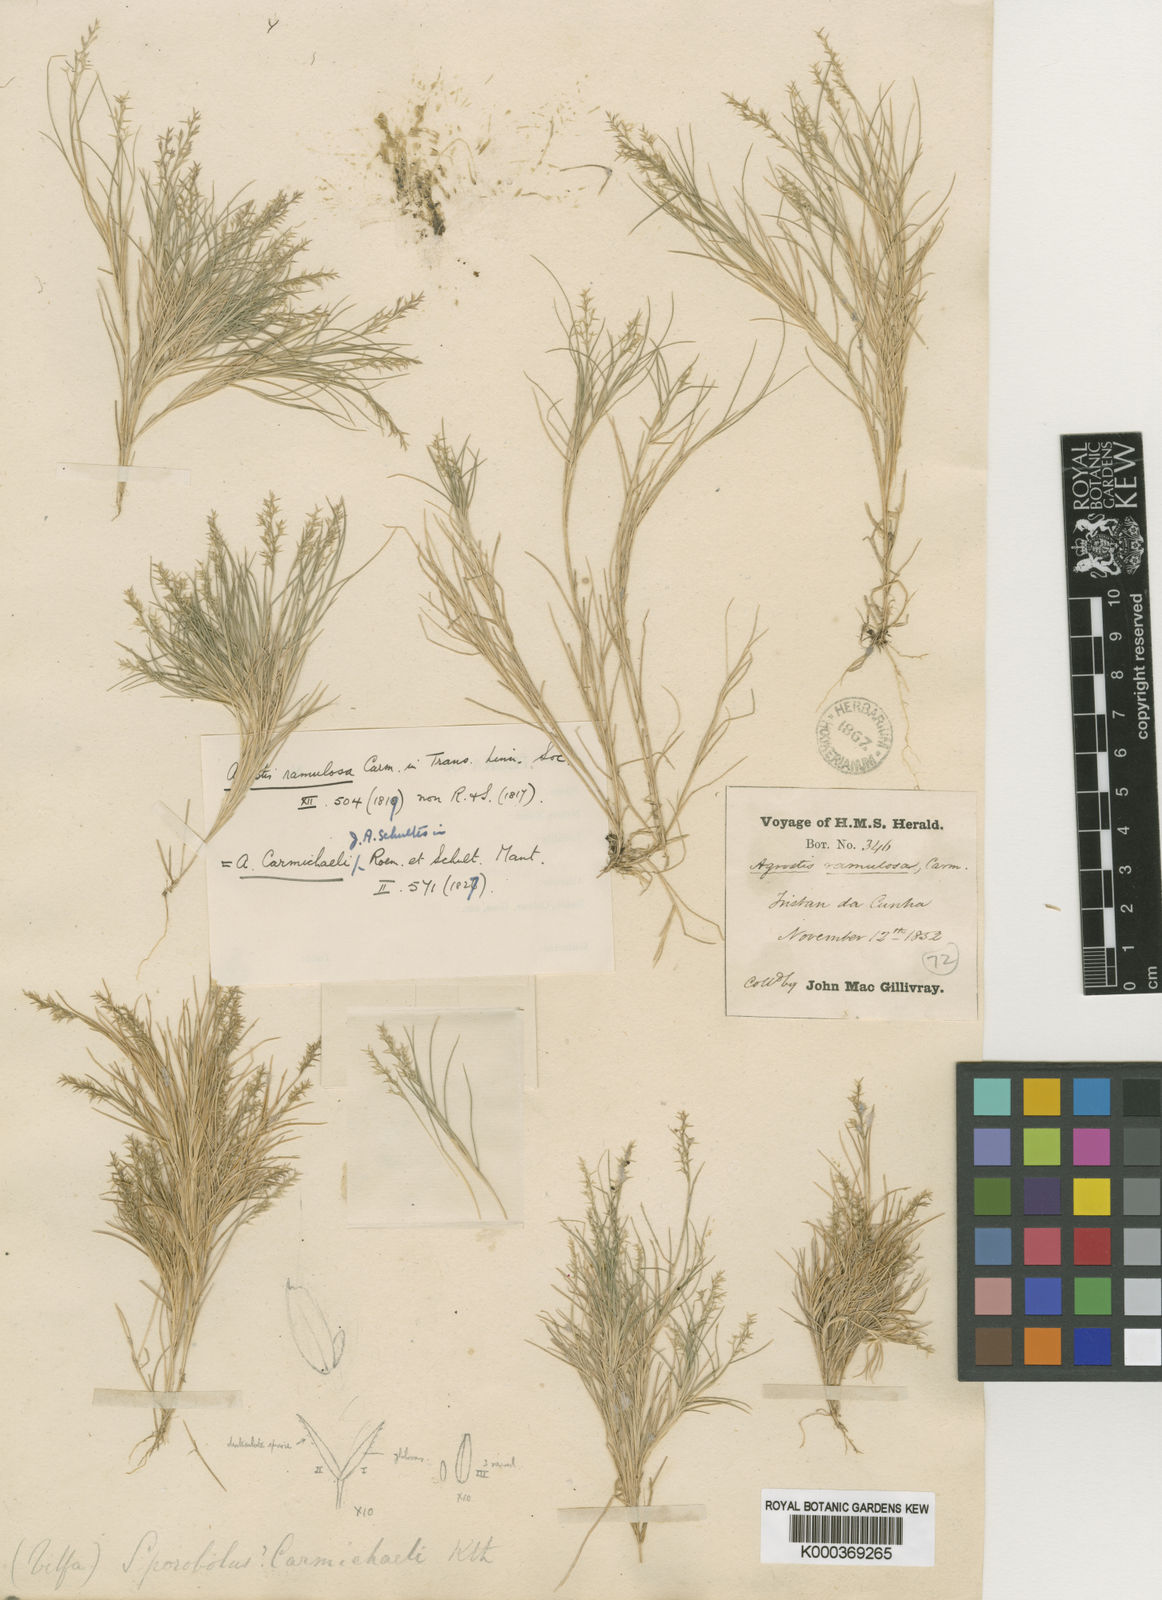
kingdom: Plantae
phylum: Tracheophyta
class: Liliopsida
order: Poales
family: Poaceae
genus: Agrostis
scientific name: Agrostis carmichaelii
